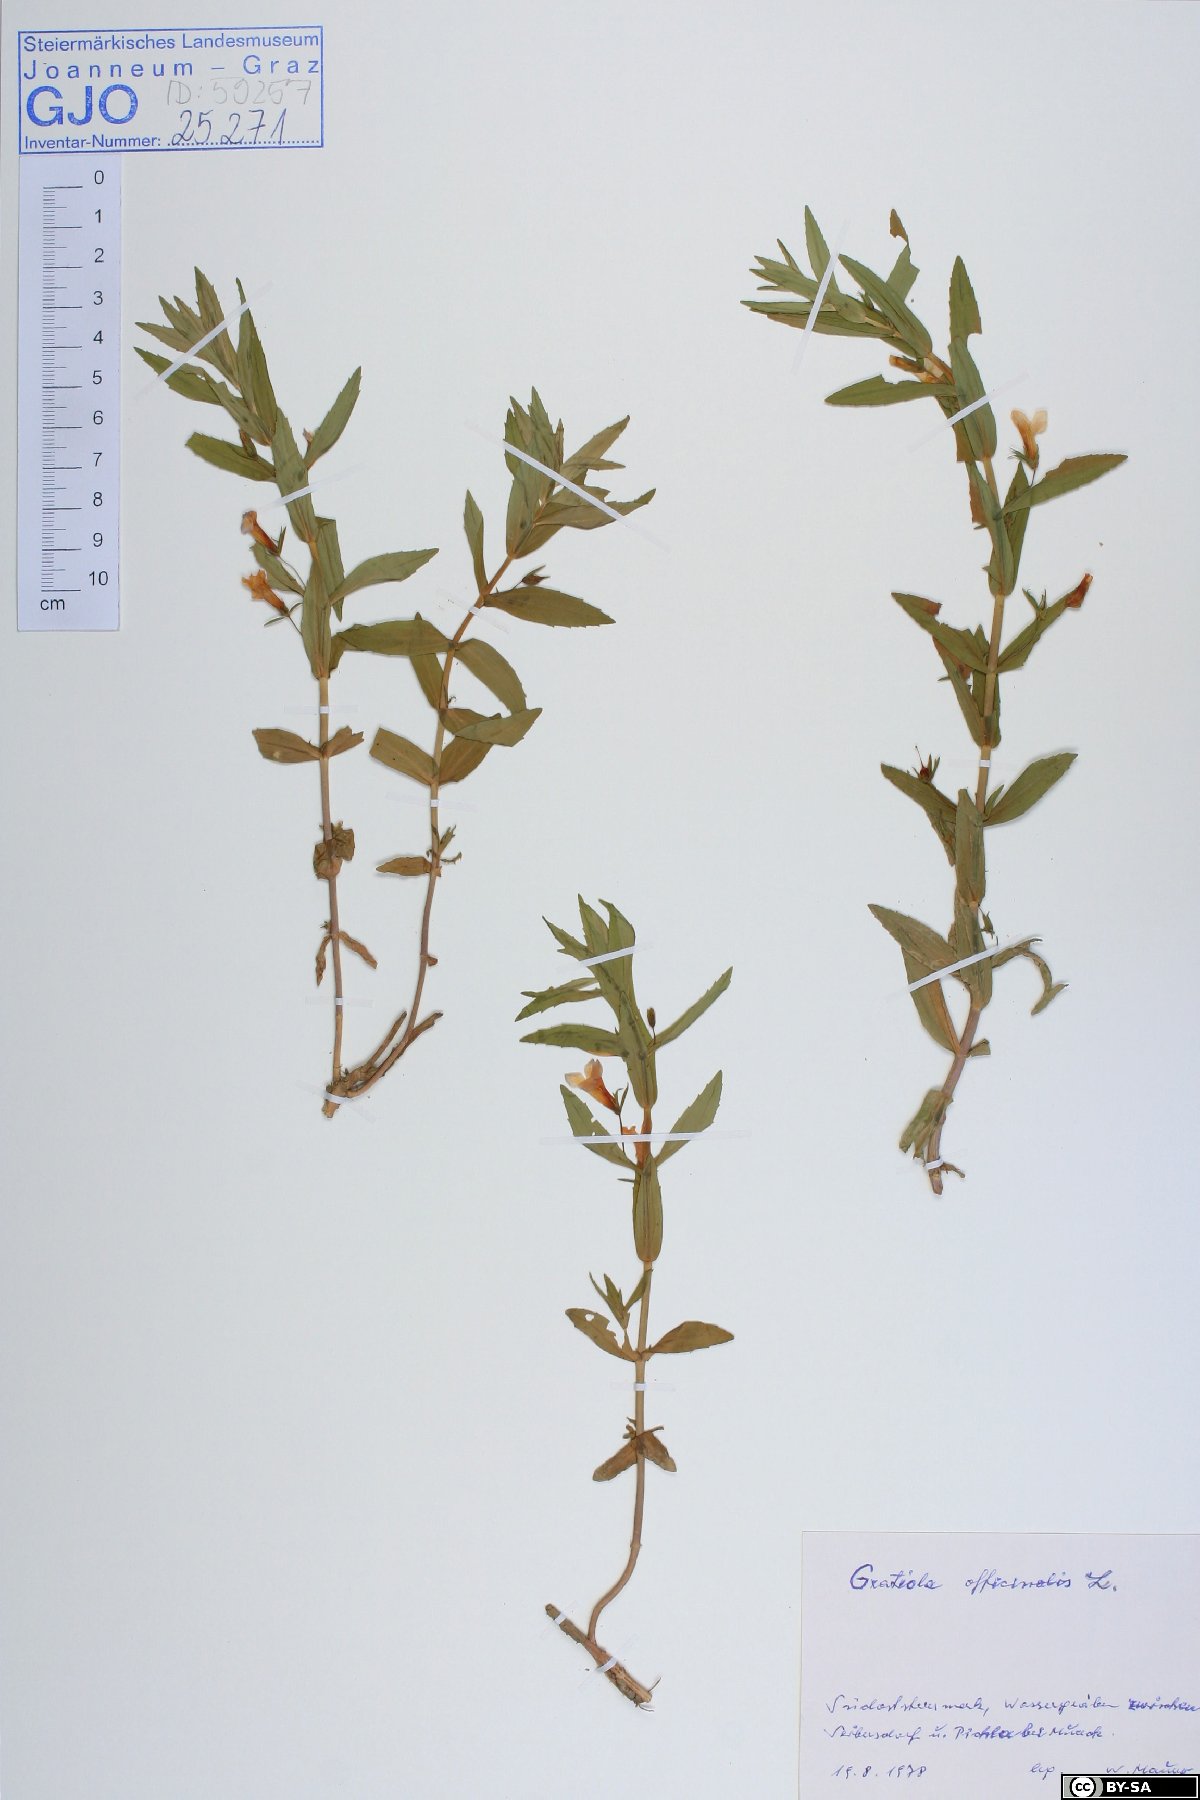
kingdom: Plantae
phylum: Tracheophyta
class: Magnoliopsida
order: Lamiales
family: Plantaginaceae
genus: Gratiola
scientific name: Gratiola officinalis
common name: Gratiola
